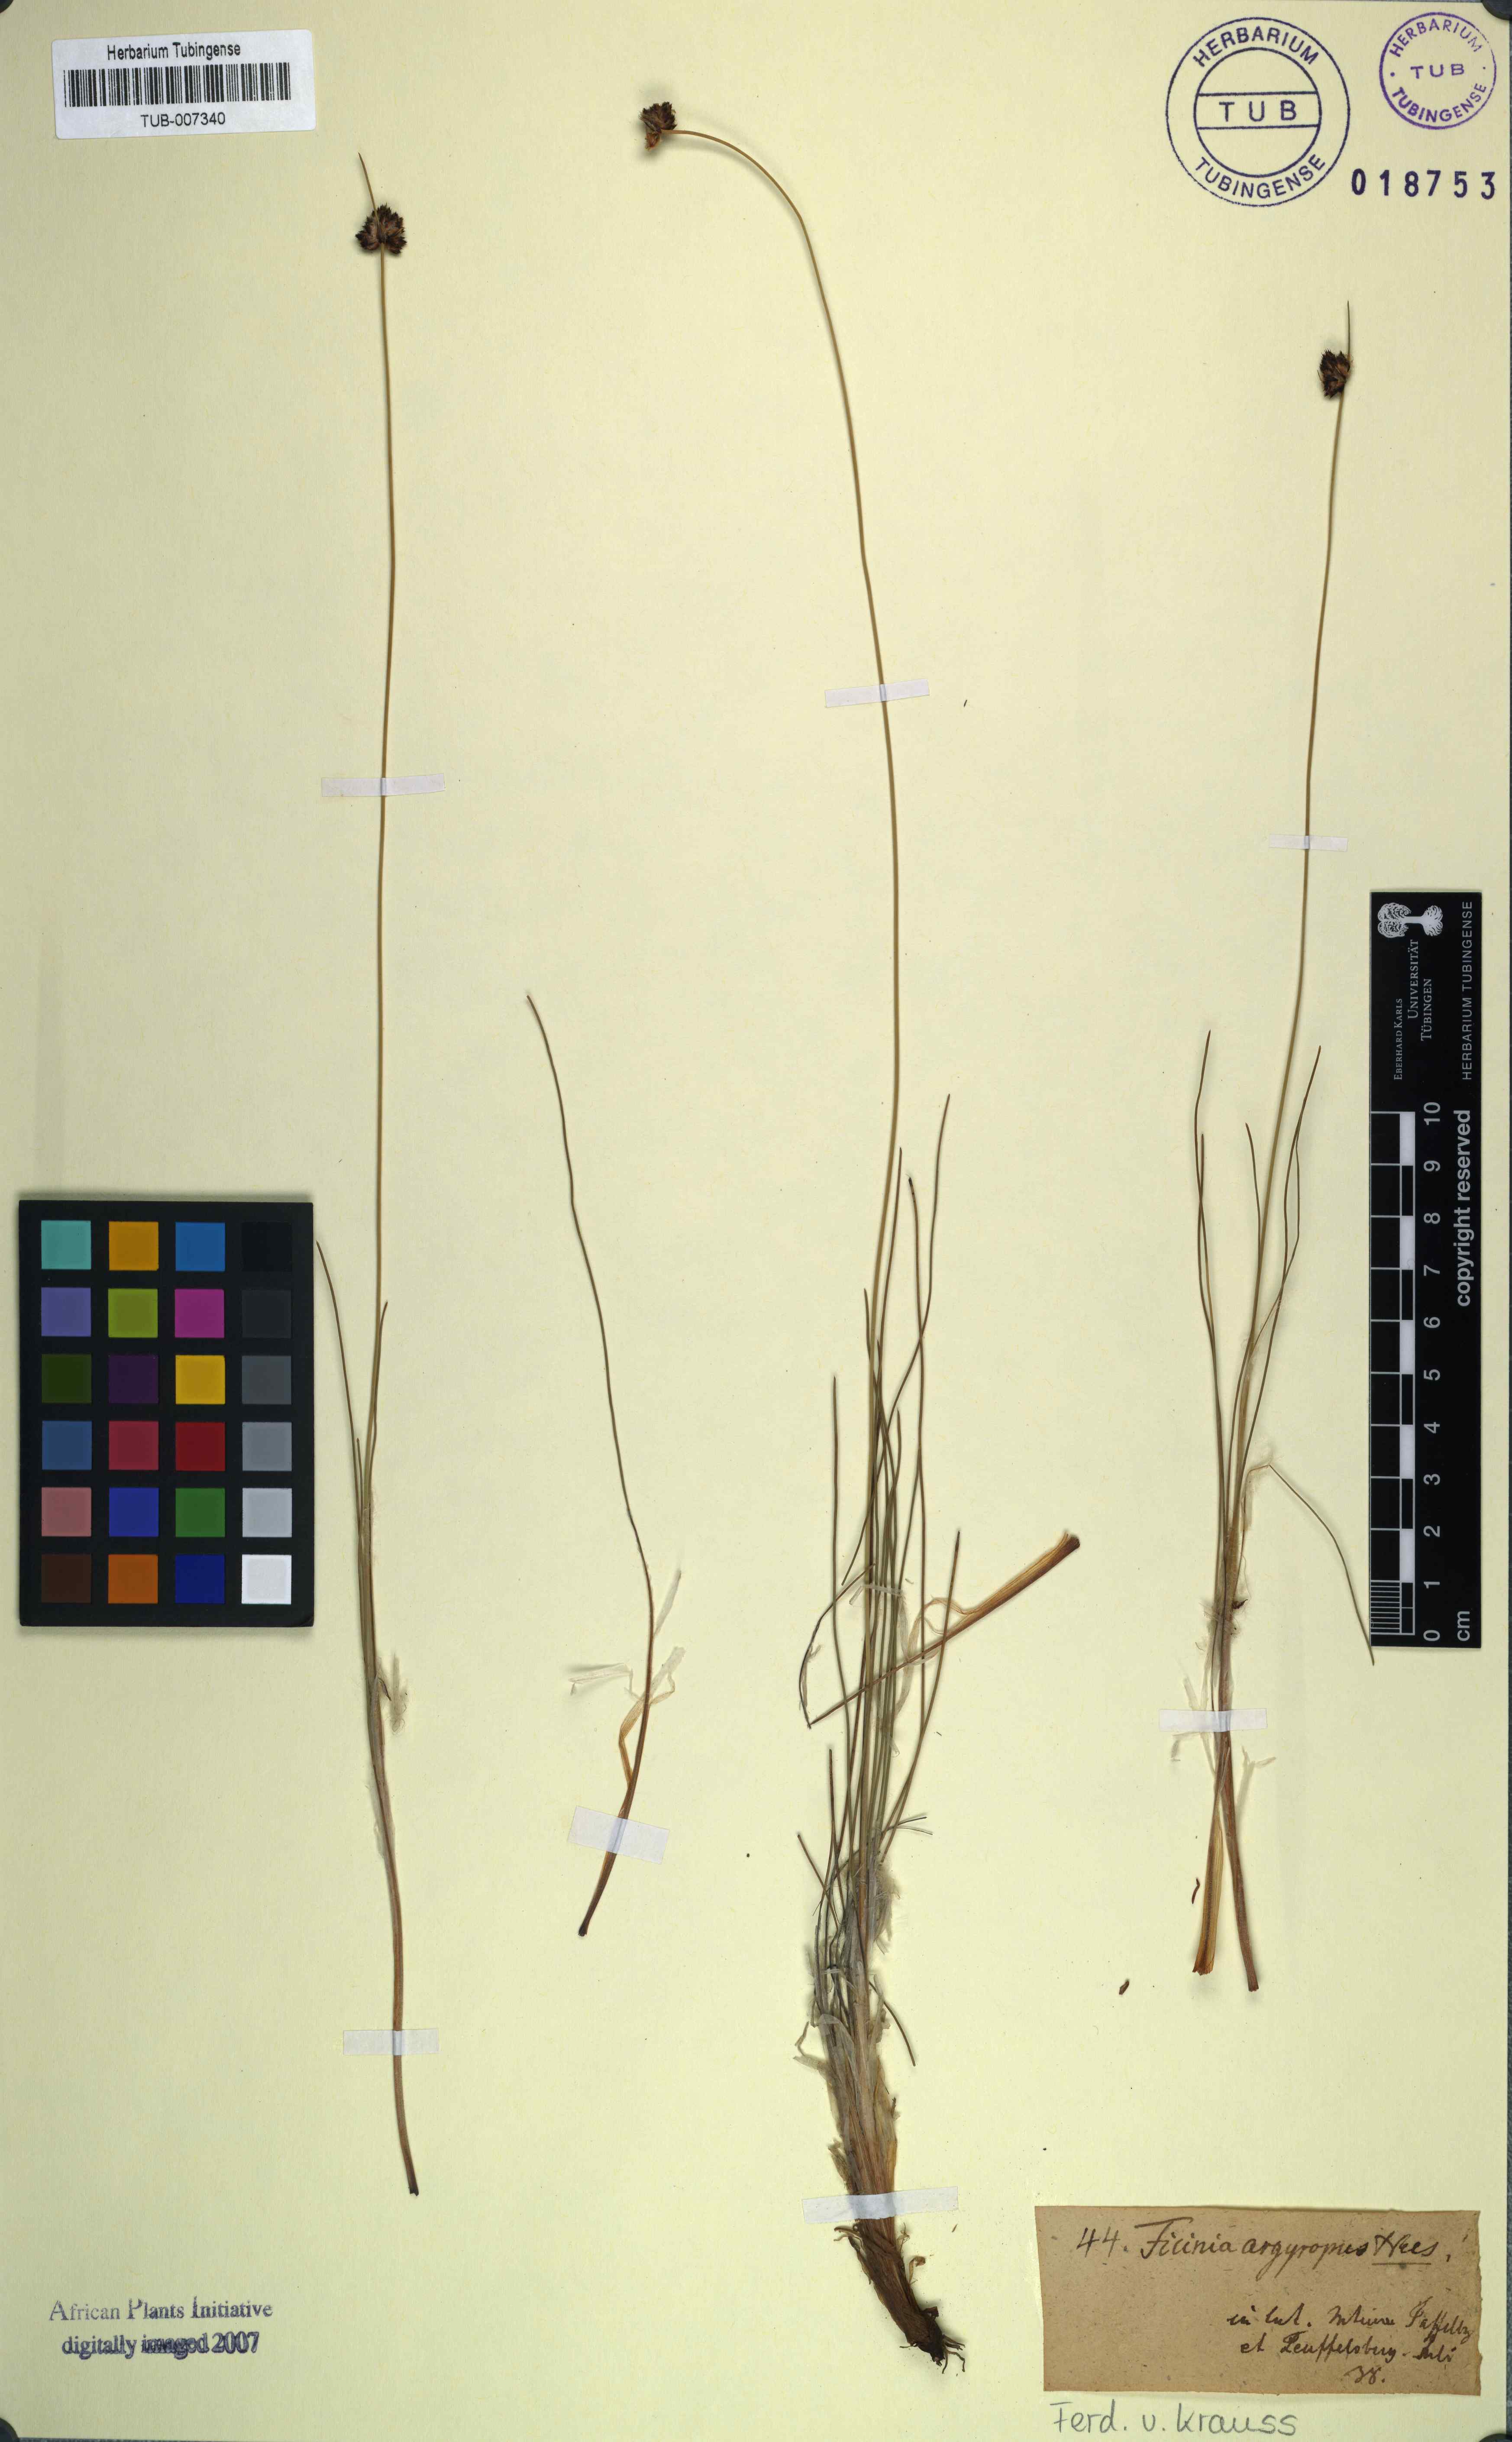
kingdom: Plantae
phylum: Tracheophyta
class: Liliopsida
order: Poales
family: Cyperaceae
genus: Ficinia
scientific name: Ficinia argyropus
